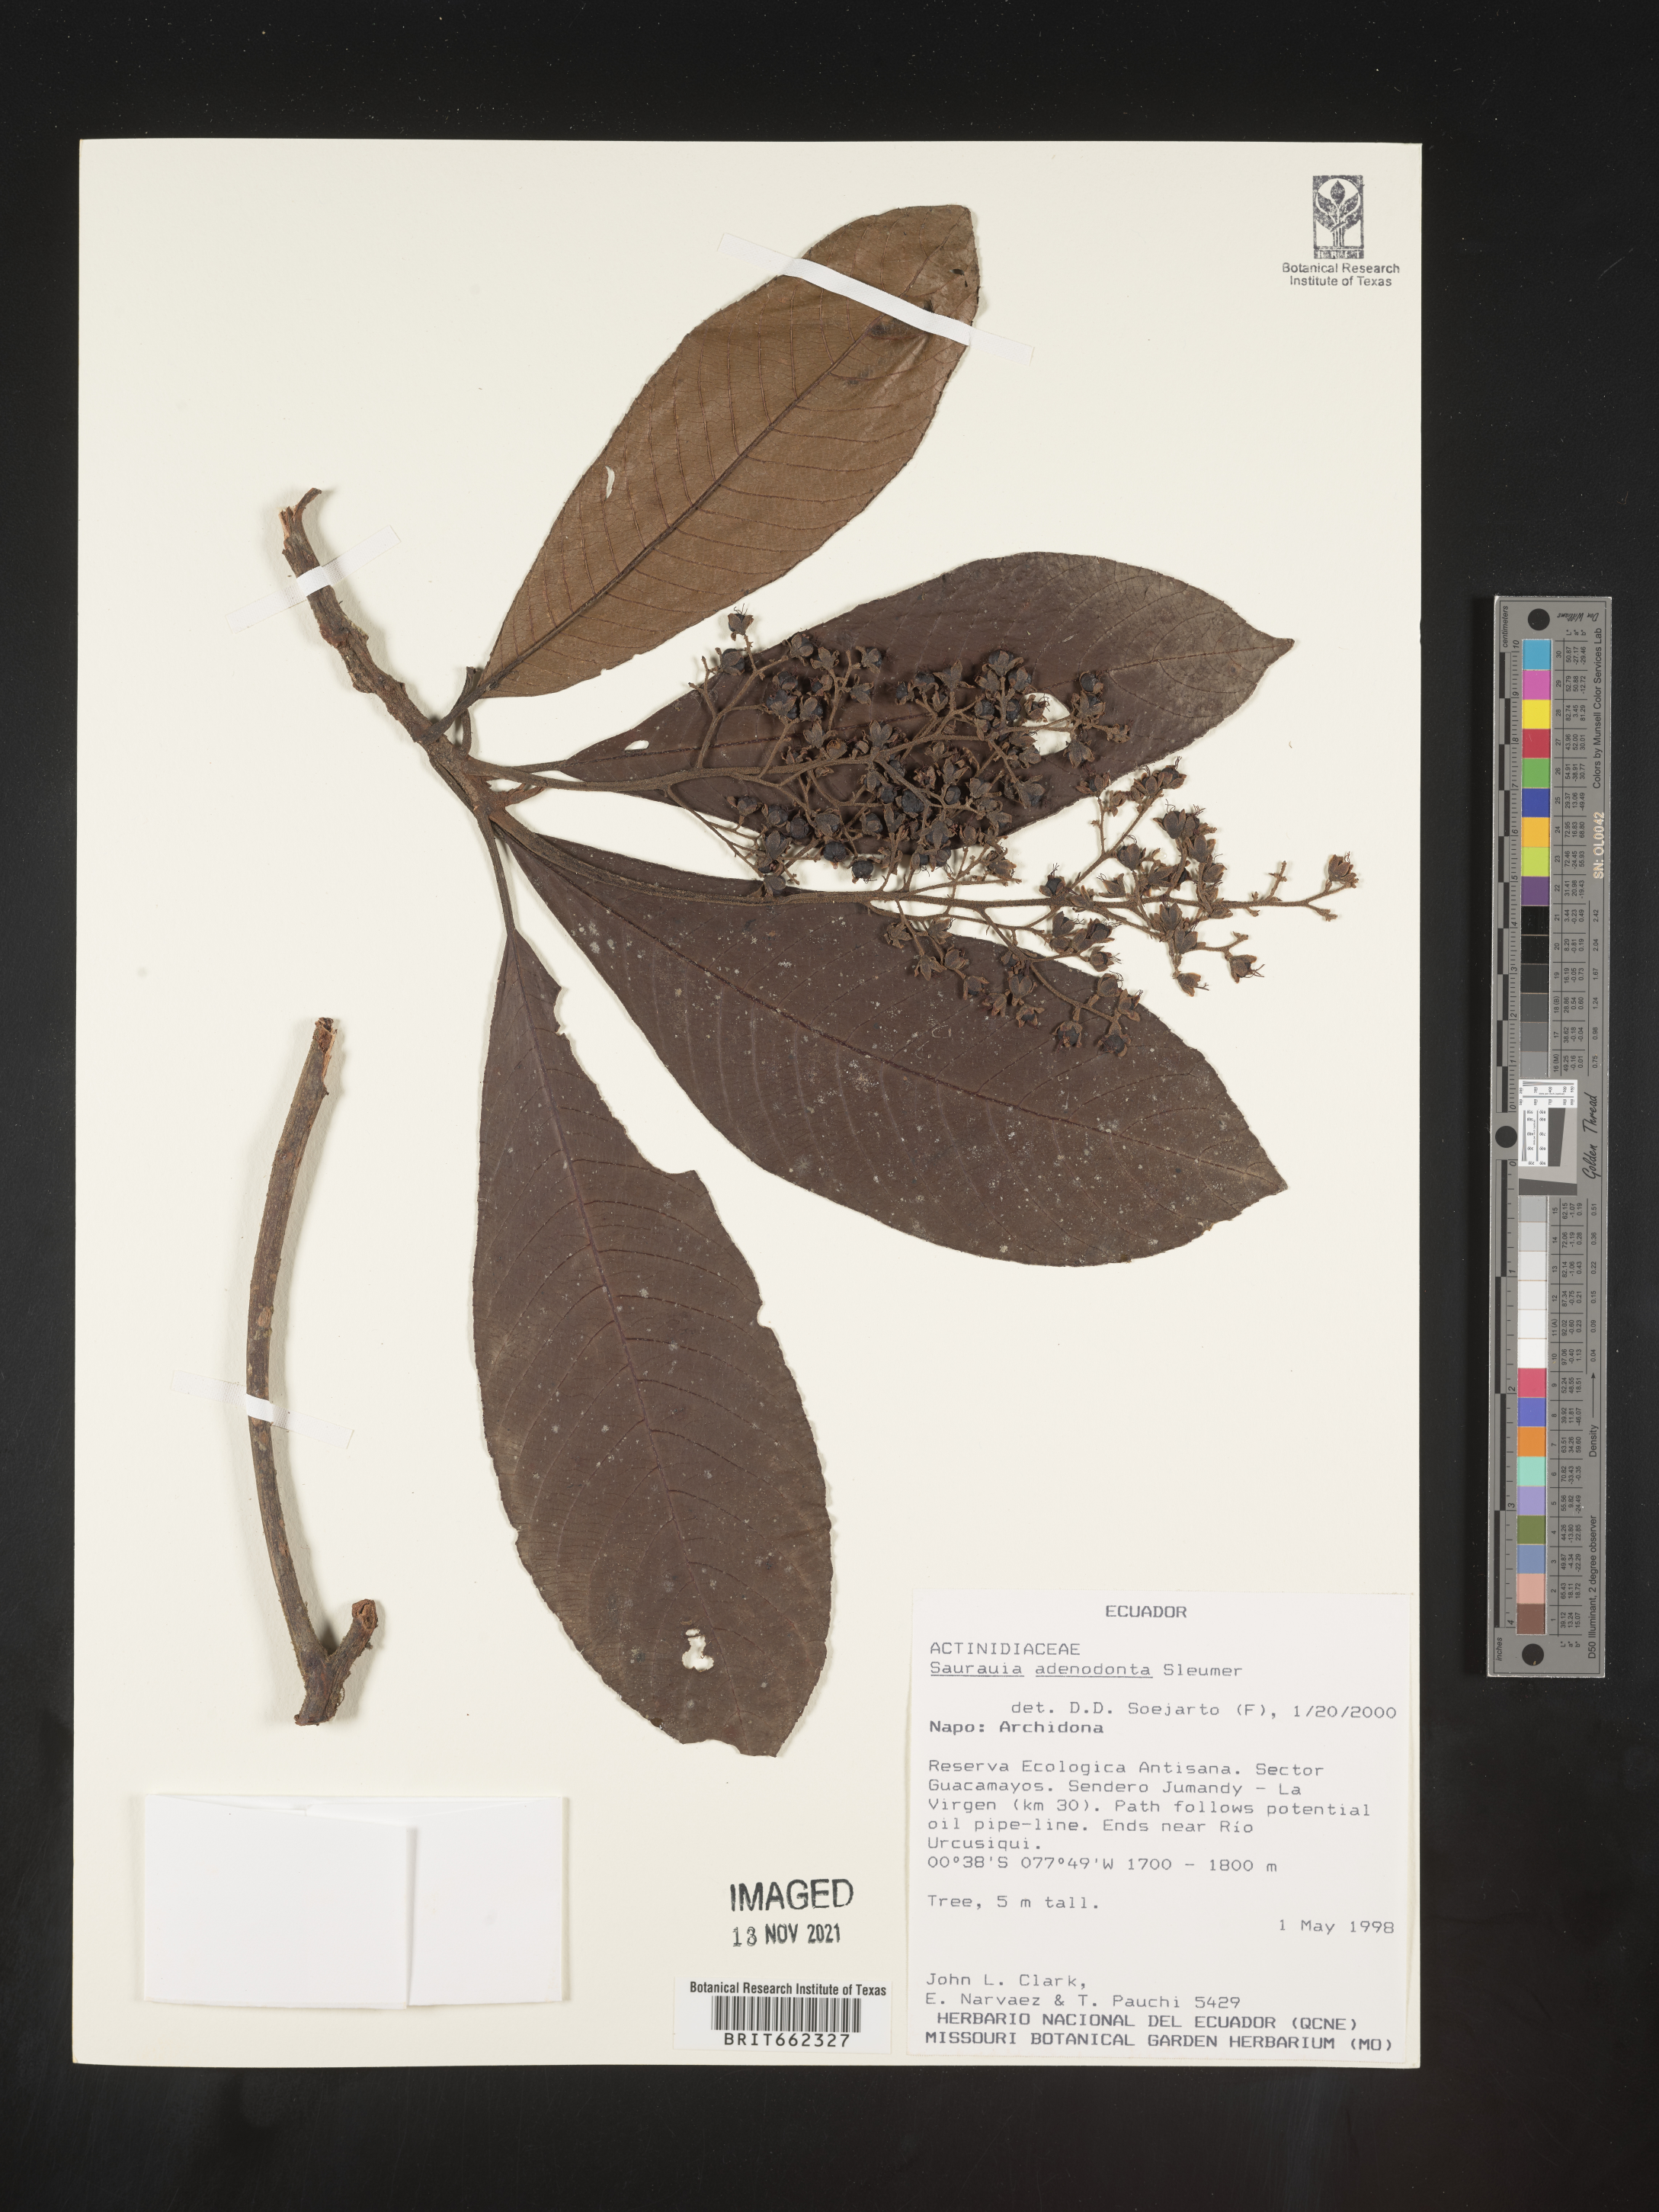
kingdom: Plantae
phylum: Tracheophyta
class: Magnoliopsida
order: Ericales
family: Actinidiaceae
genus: Saurauia
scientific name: Saurauia
